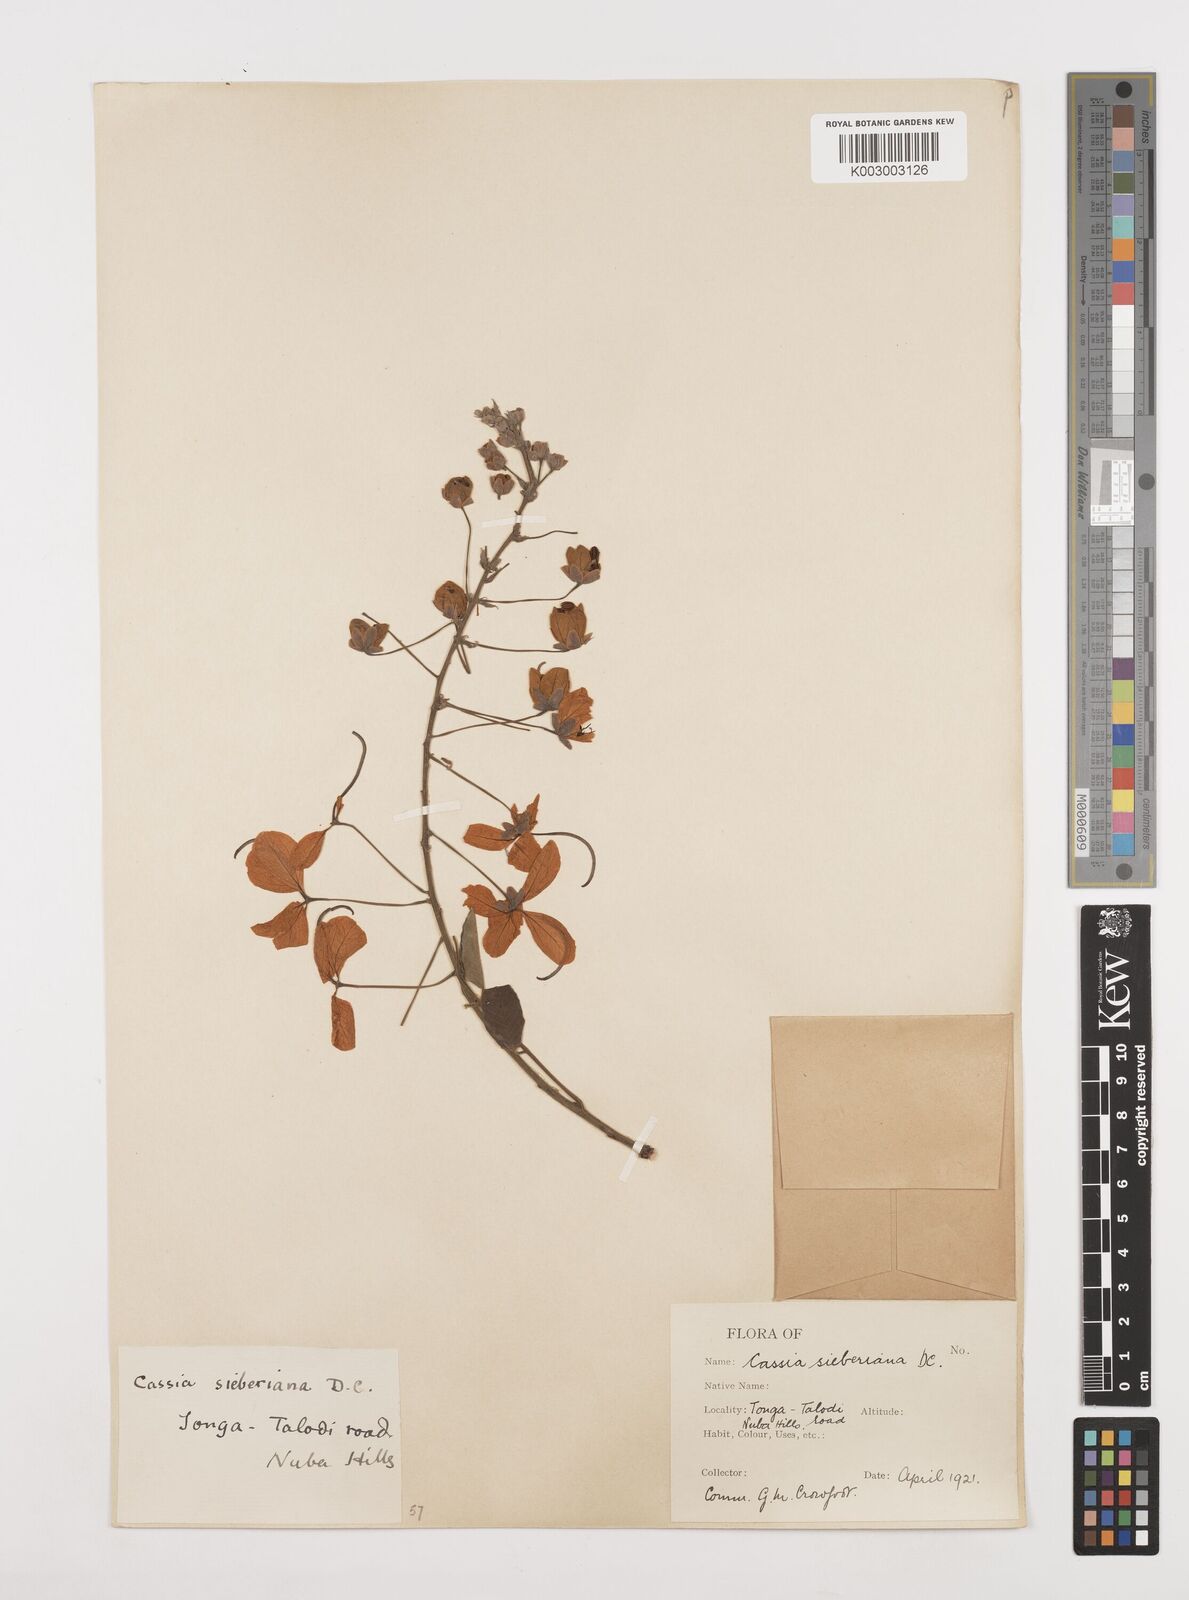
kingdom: Plantae
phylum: Tracheophyta
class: Magnoliopsida
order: Fabales
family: Fabaceae
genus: Cassia
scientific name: Cassia sieberiana
